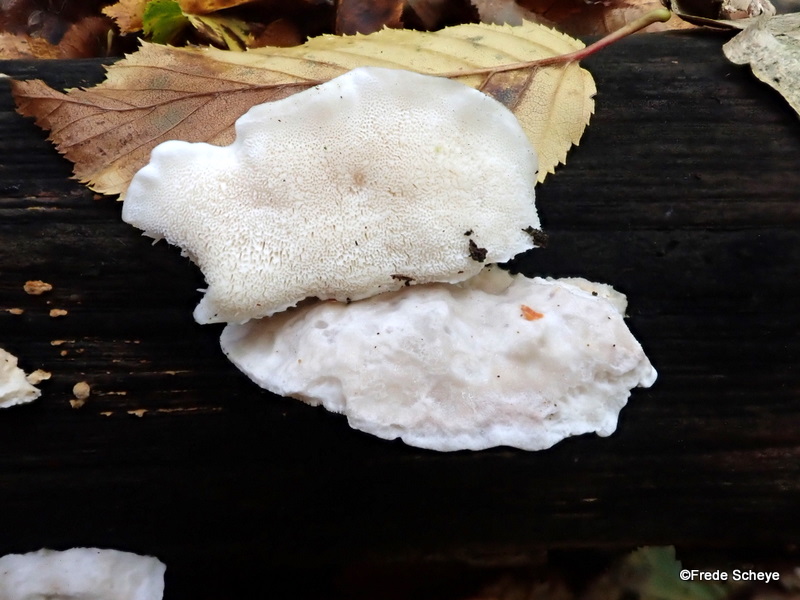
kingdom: Fungi
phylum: Basidiomycota
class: Agaricomycetes
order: Polyporales
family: Incrustoporiaceae
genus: Tyromyces
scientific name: Tyromyces lacteus
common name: mælkehvid kødporesvamp
